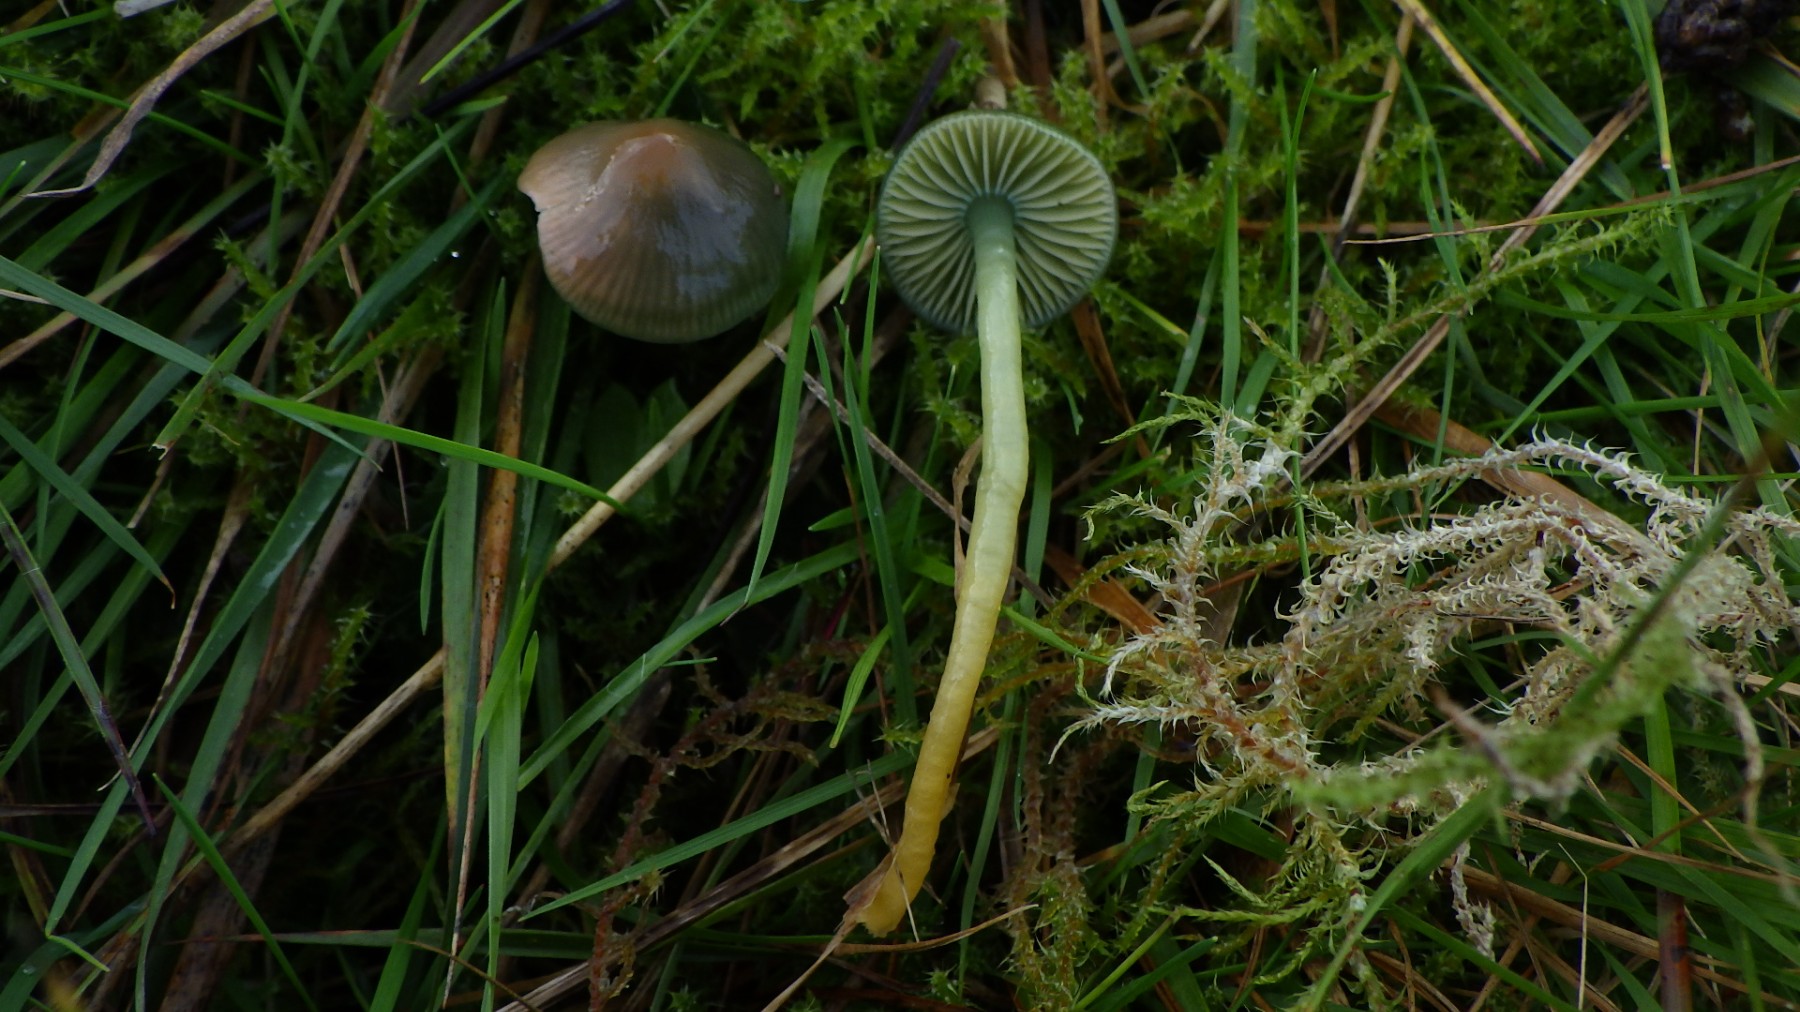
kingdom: Fungi
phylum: Basidiomycota
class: Agaricomycetes
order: Agaricales
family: Hygrophoraceae
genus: Gliophorus
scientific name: Gliophorus psittacinus
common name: papegøje-vokshat
